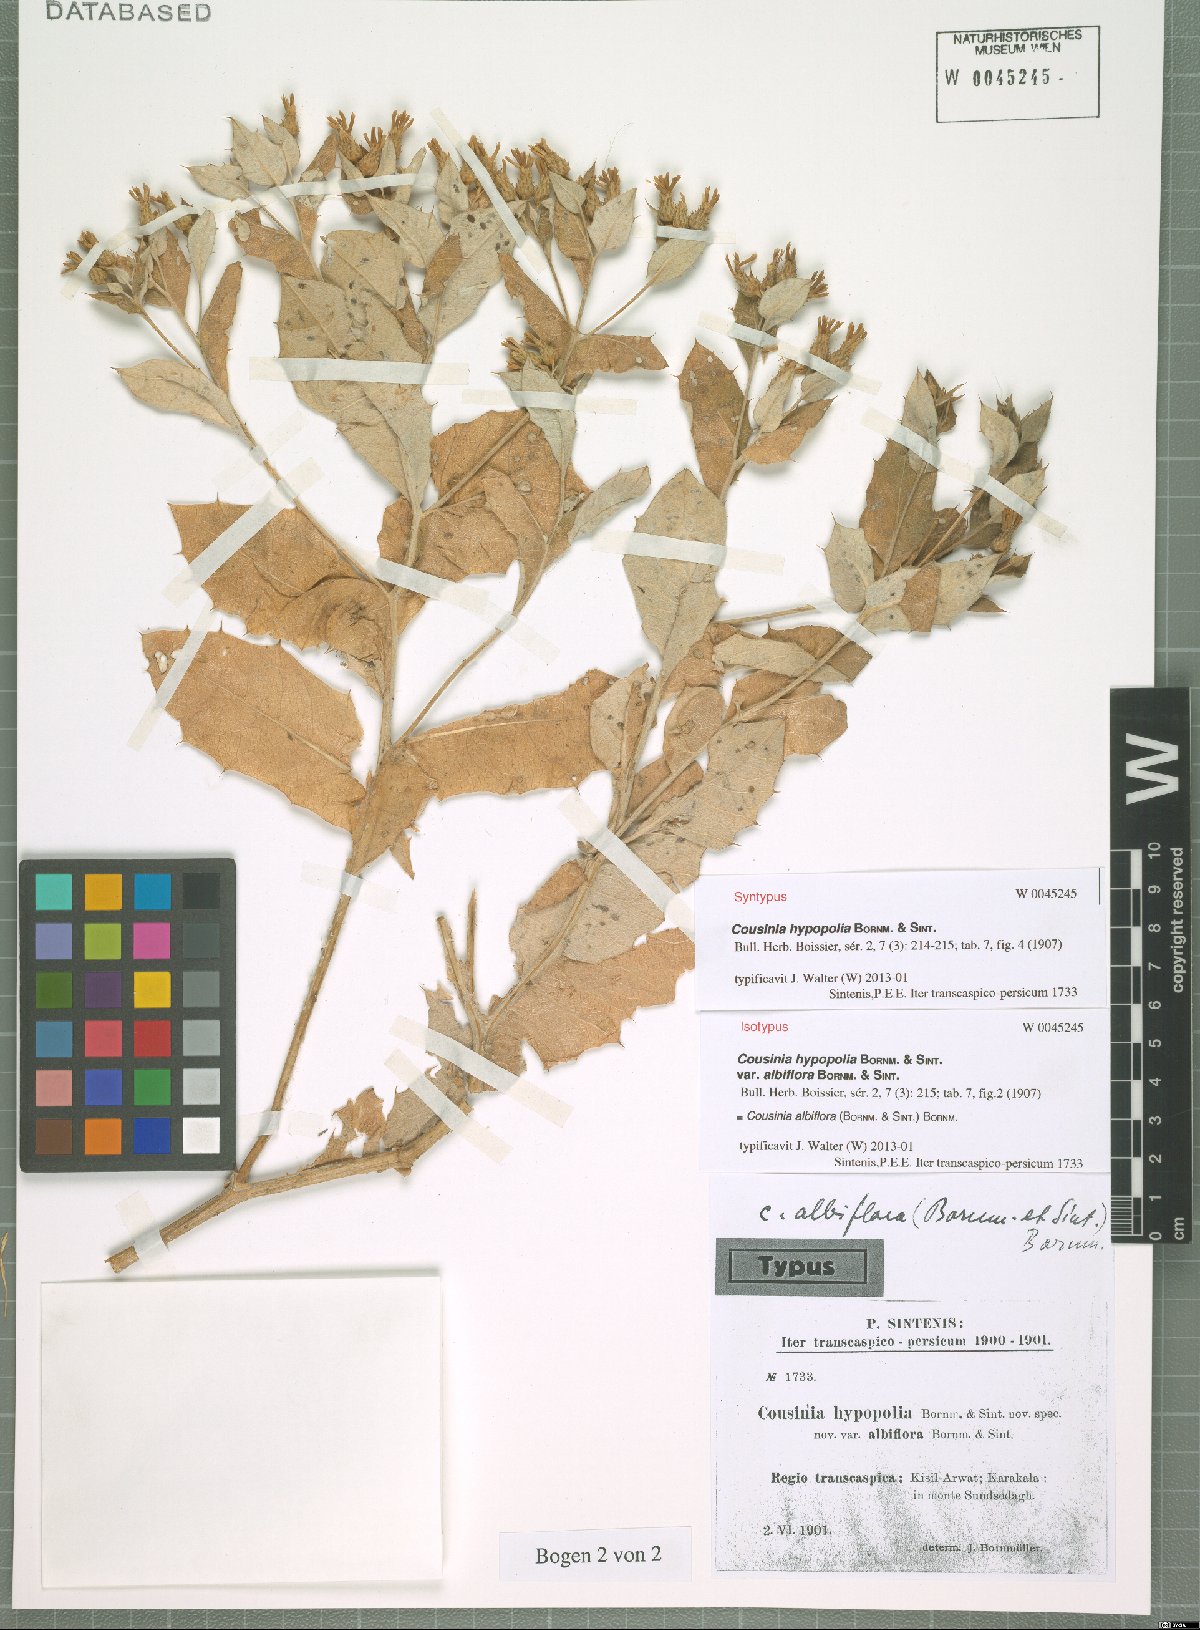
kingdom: Plantae
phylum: Tracheophyta
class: Magnoliopsida
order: Asterales
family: Asteraceae
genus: Cousinia
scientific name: Cousinia albiflora
